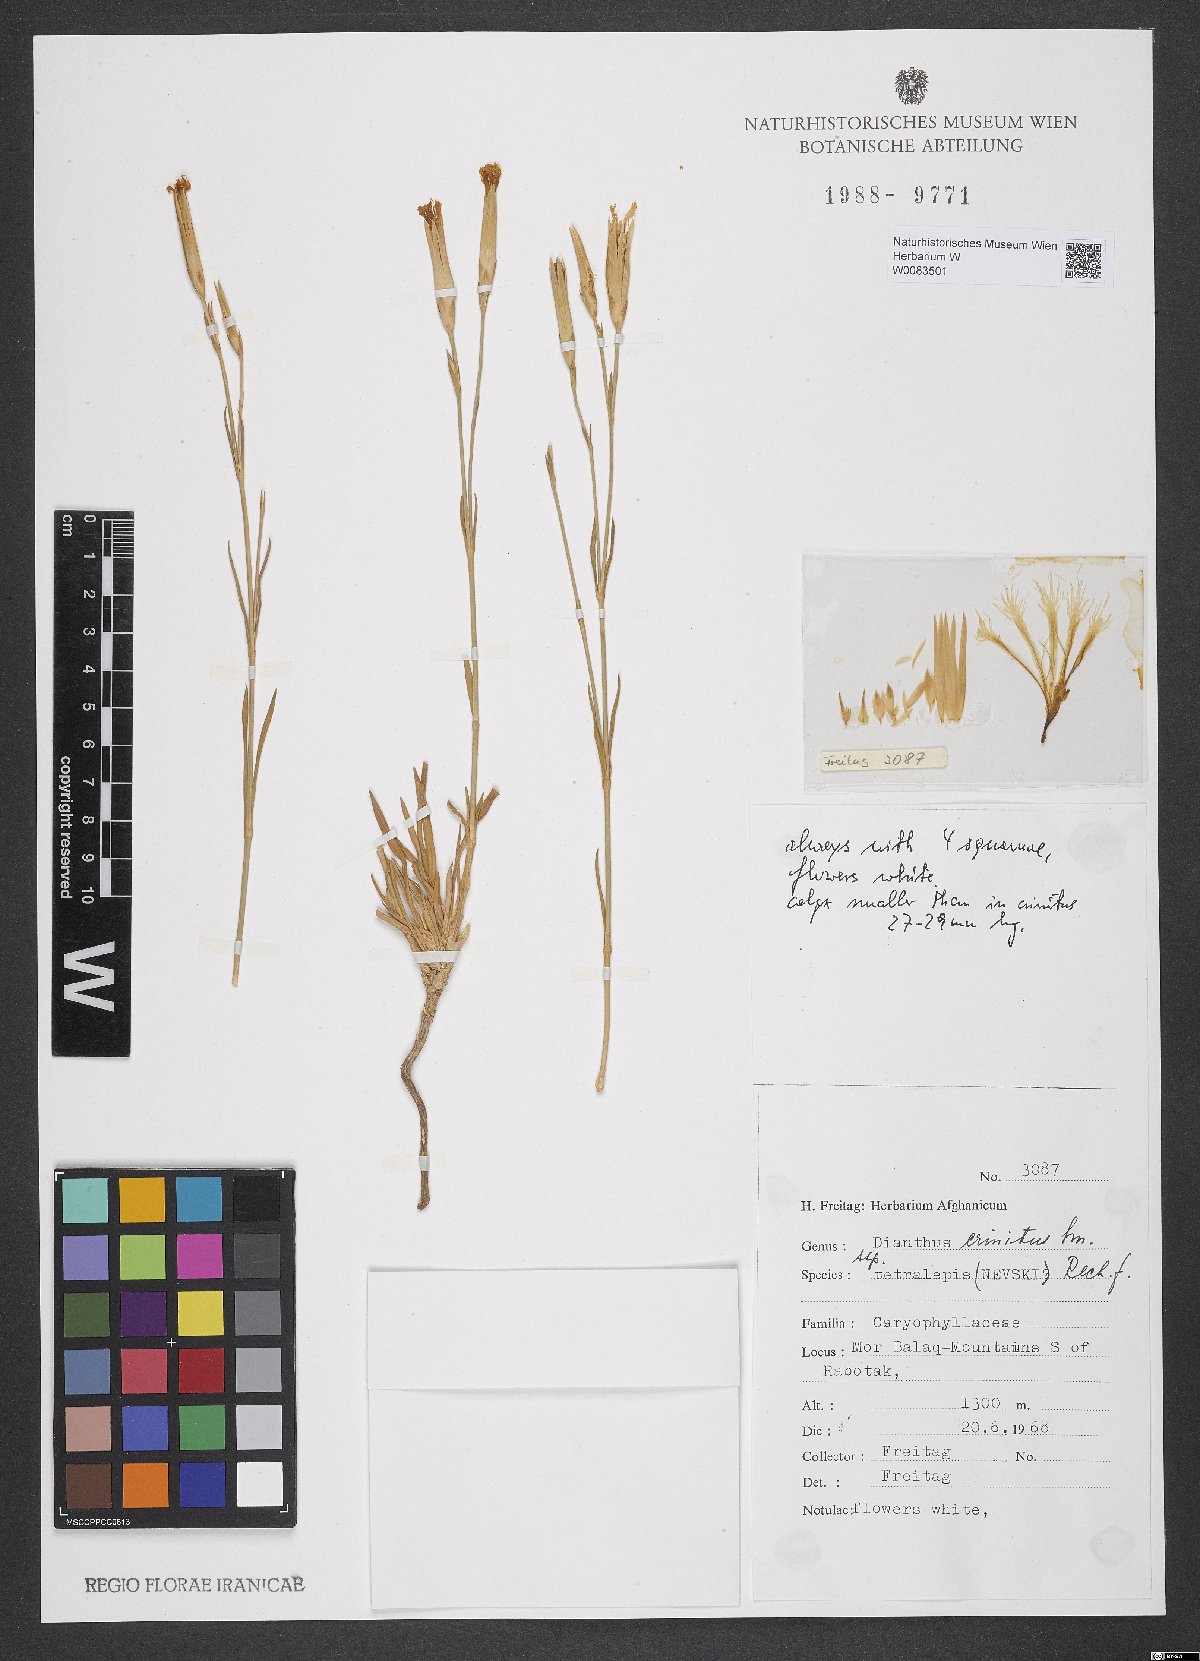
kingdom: Plantae
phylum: Tracheophyta
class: Magnoliopsida
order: Caryophyllales
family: Caryophyllaceae
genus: Dianthus
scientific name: Dianthus crinitus
